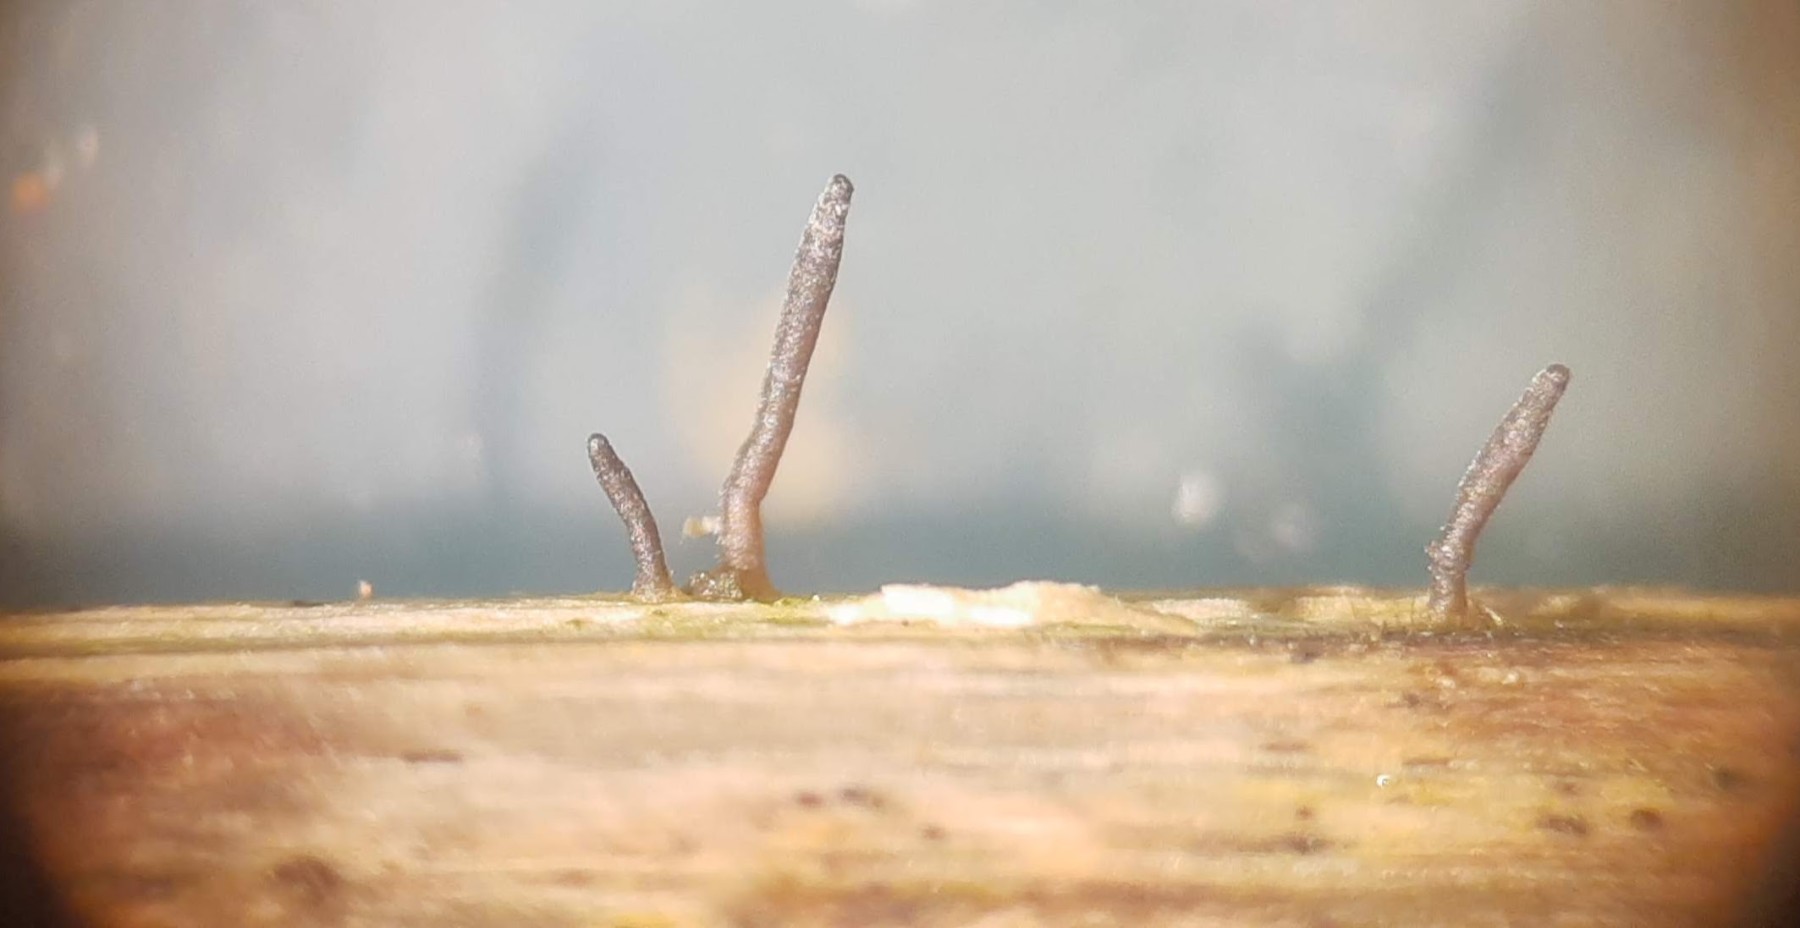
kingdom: Fungi
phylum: Ascomycota
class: Dothideomycetes
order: Acrospermales
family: Acrospermaceae
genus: Acrospermum
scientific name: Acrospermum compressum
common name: nælde-stængeltunge
